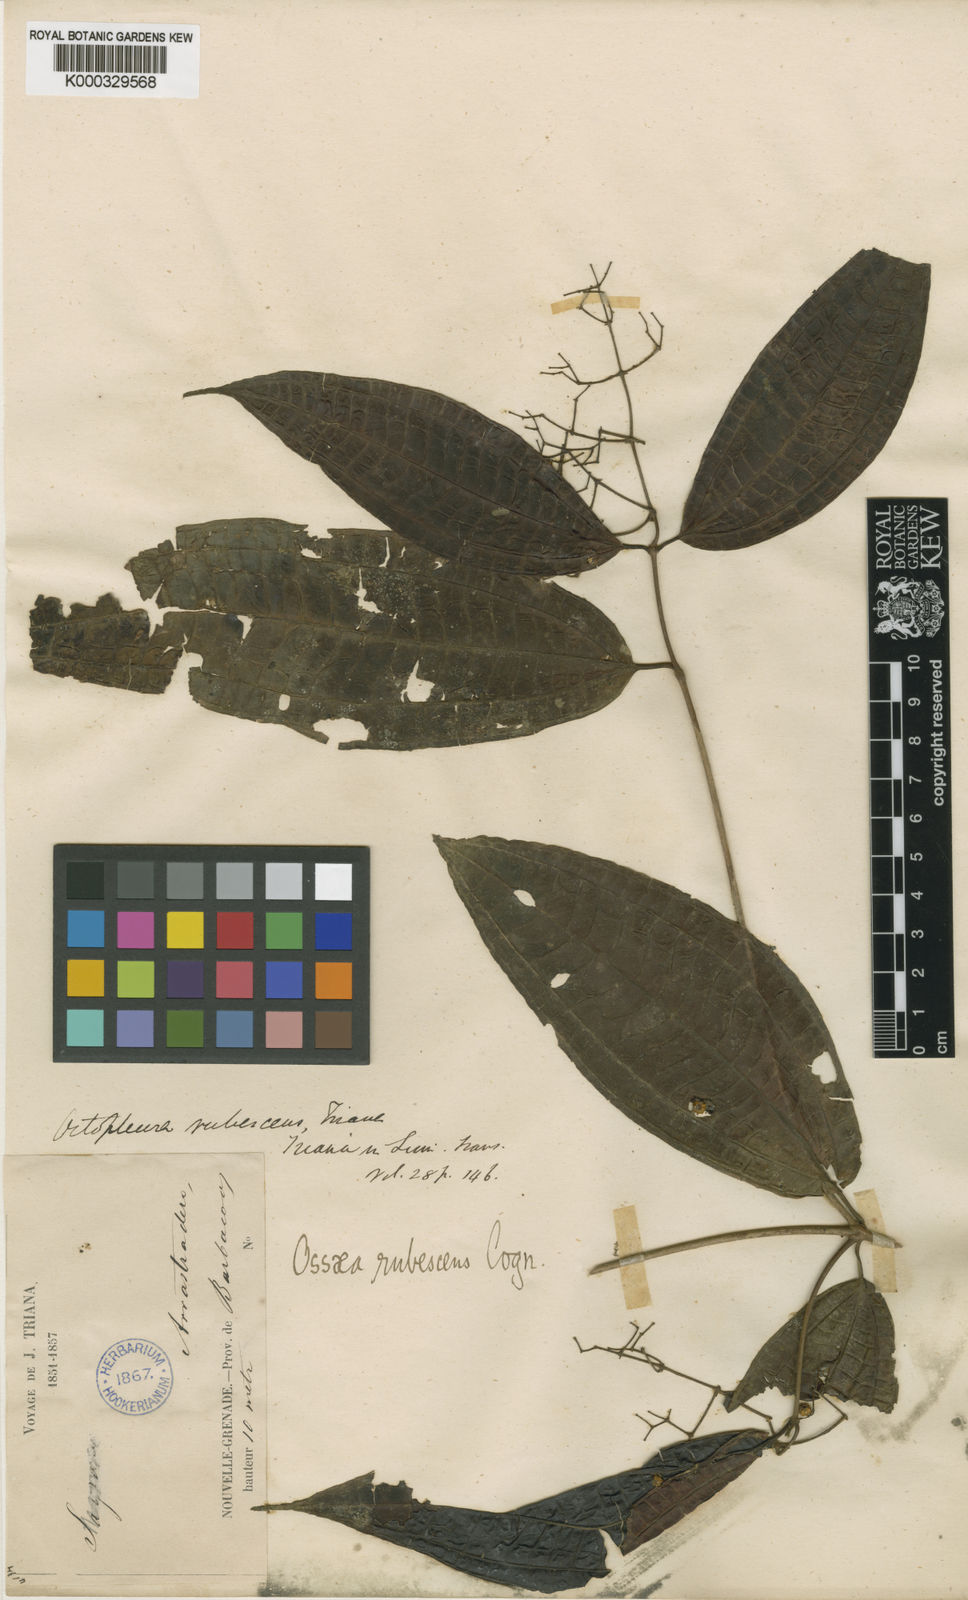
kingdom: Plantae
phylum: Tracheophyta
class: Magnoliopsida
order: Myrtales
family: Melastomataceae
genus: Miconia
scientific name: Miconia rubescens
